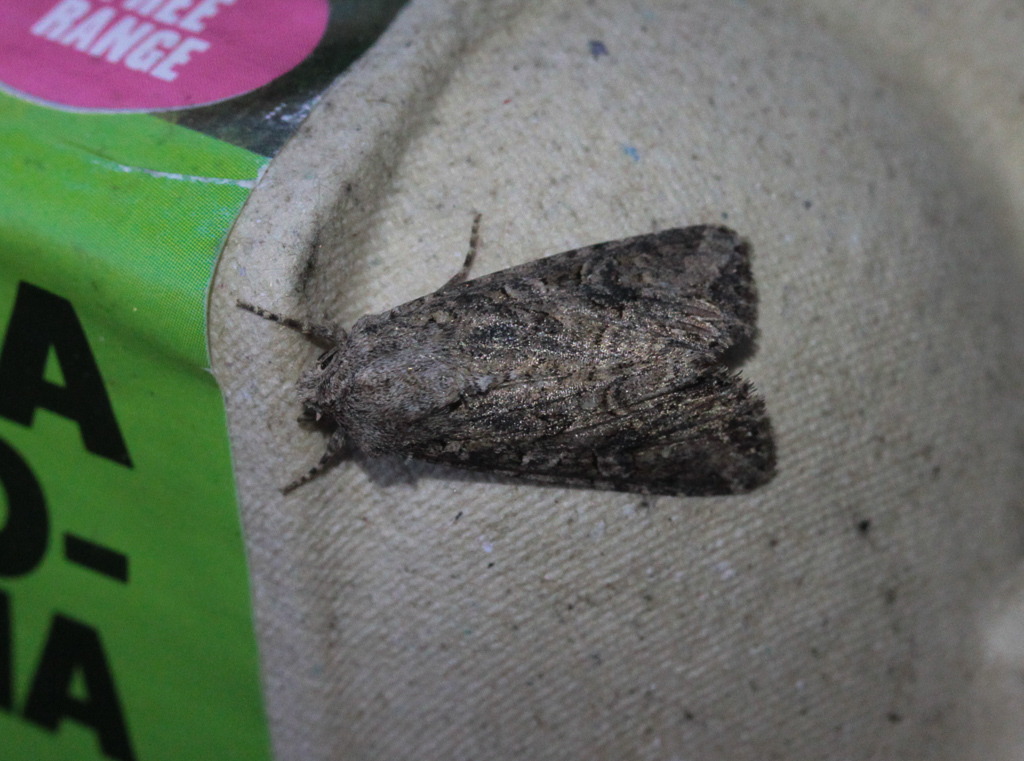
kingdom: Animalia
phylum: Arthropoda
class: Insecta
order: Lepidoptera
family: Noctuidae
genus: Anarta
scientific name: Anarta trifolii
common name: Clover cutworm moth
